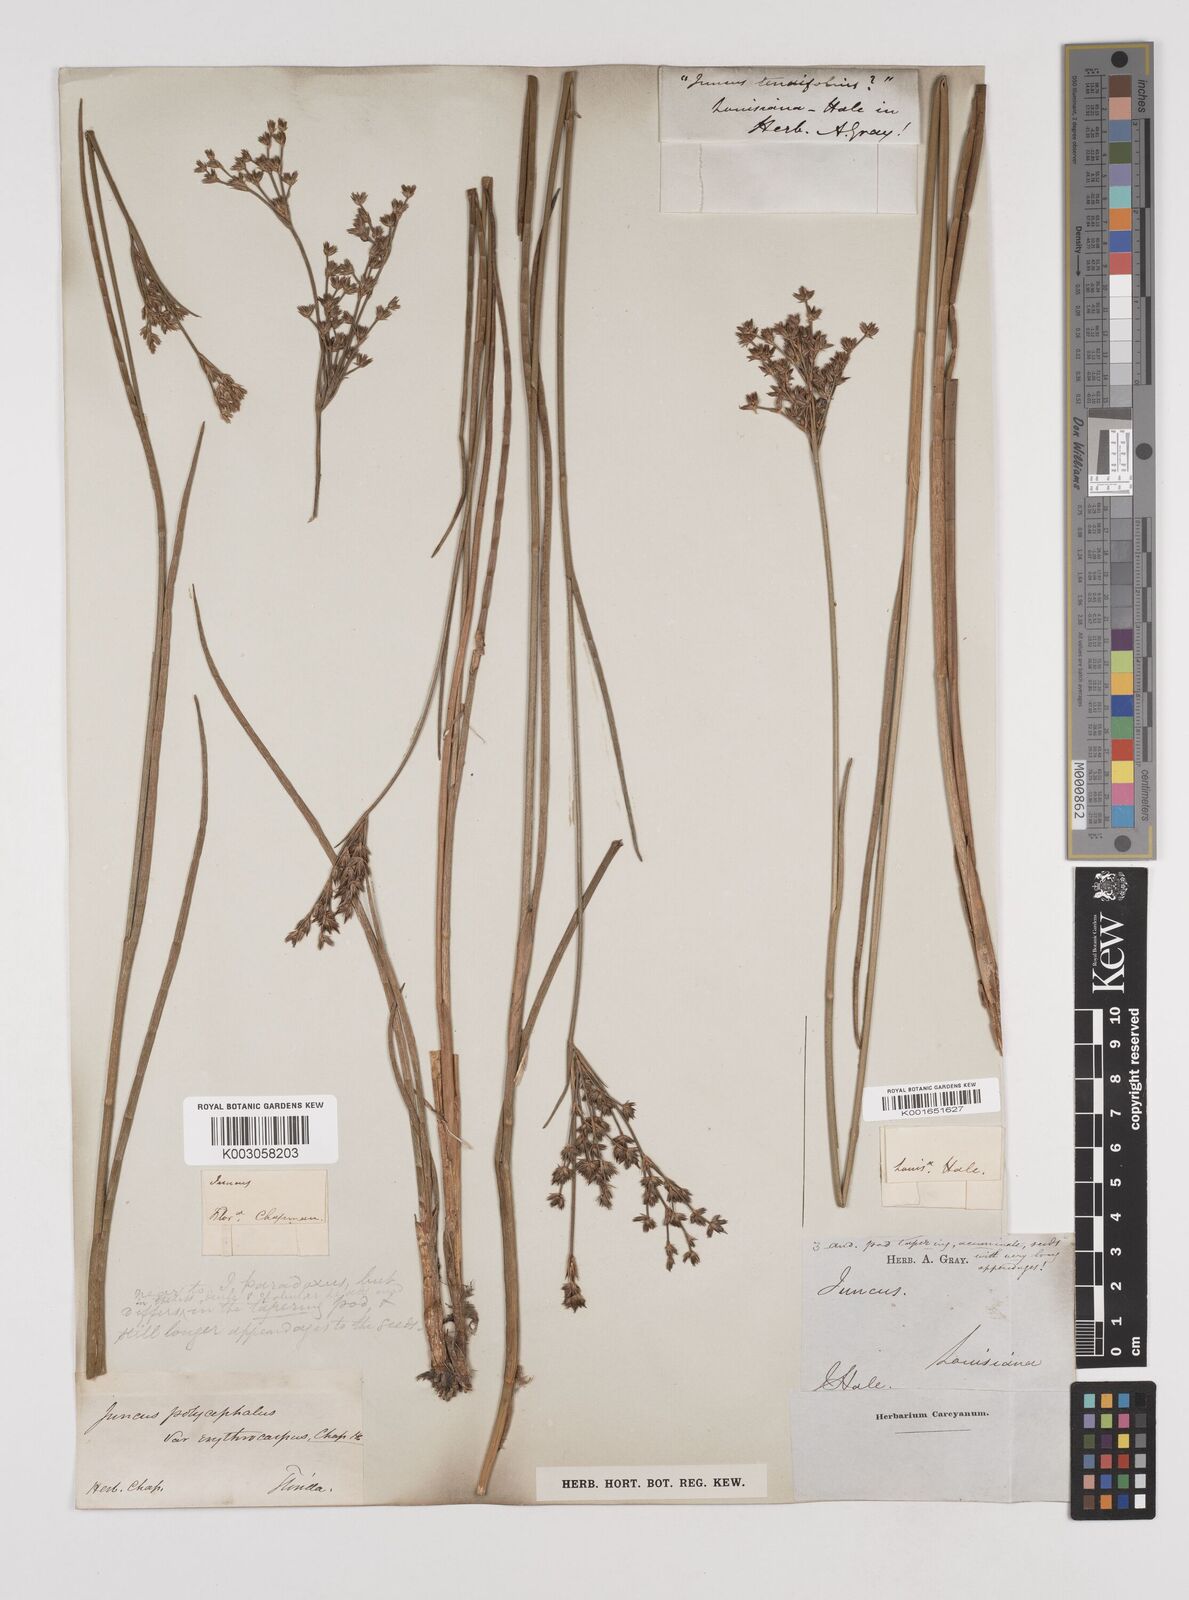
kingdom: Plantae
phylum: Tracheophyta
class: Liliopsida
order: Poales
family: Juncaceae
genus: Juncus
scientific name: Juncus
